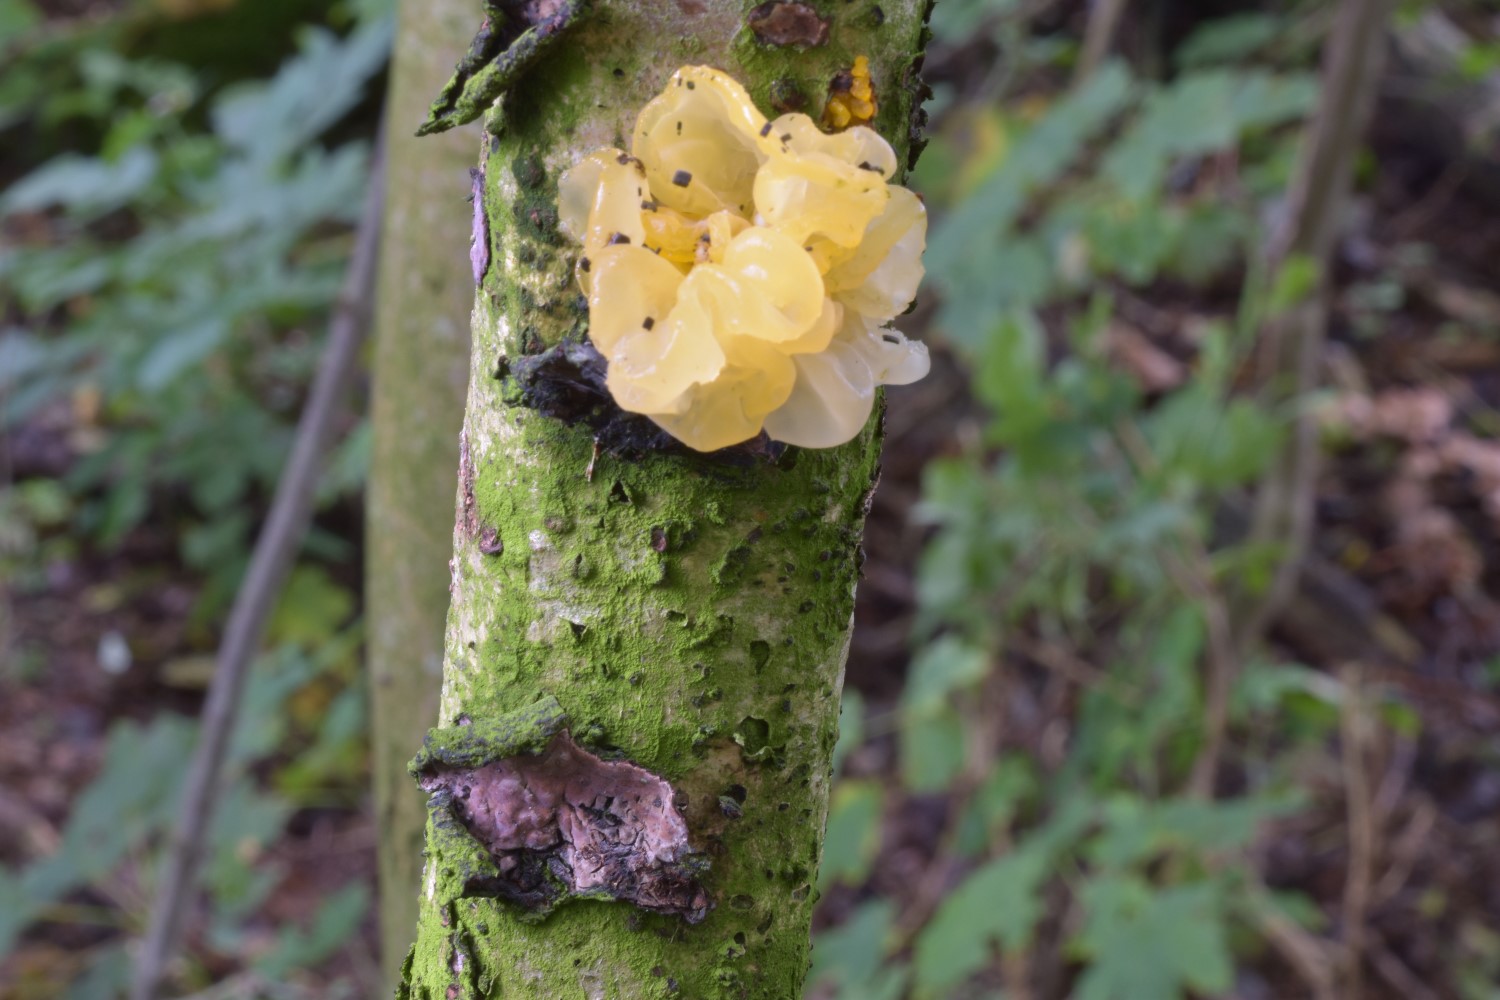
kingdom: Fungi
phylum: Basidiomycota
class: Tremellomycetes
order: Tremellales
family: Tremellaceae
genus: Tremella
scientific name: Tremella mesenterica
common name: gul bævresvamp
